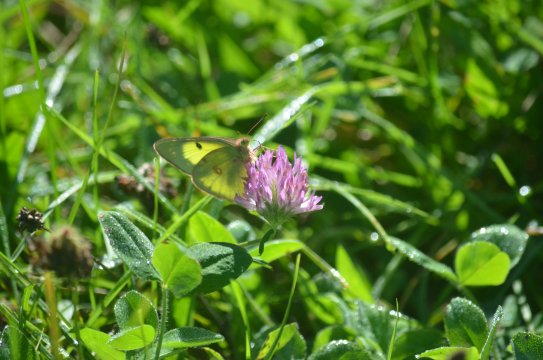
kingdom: Animalia
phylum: Arthropoda
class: Insecta
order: Lepidoptera
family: Pieridae
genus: Colias
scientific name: Colias philodice
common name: Clouded Sulphur
